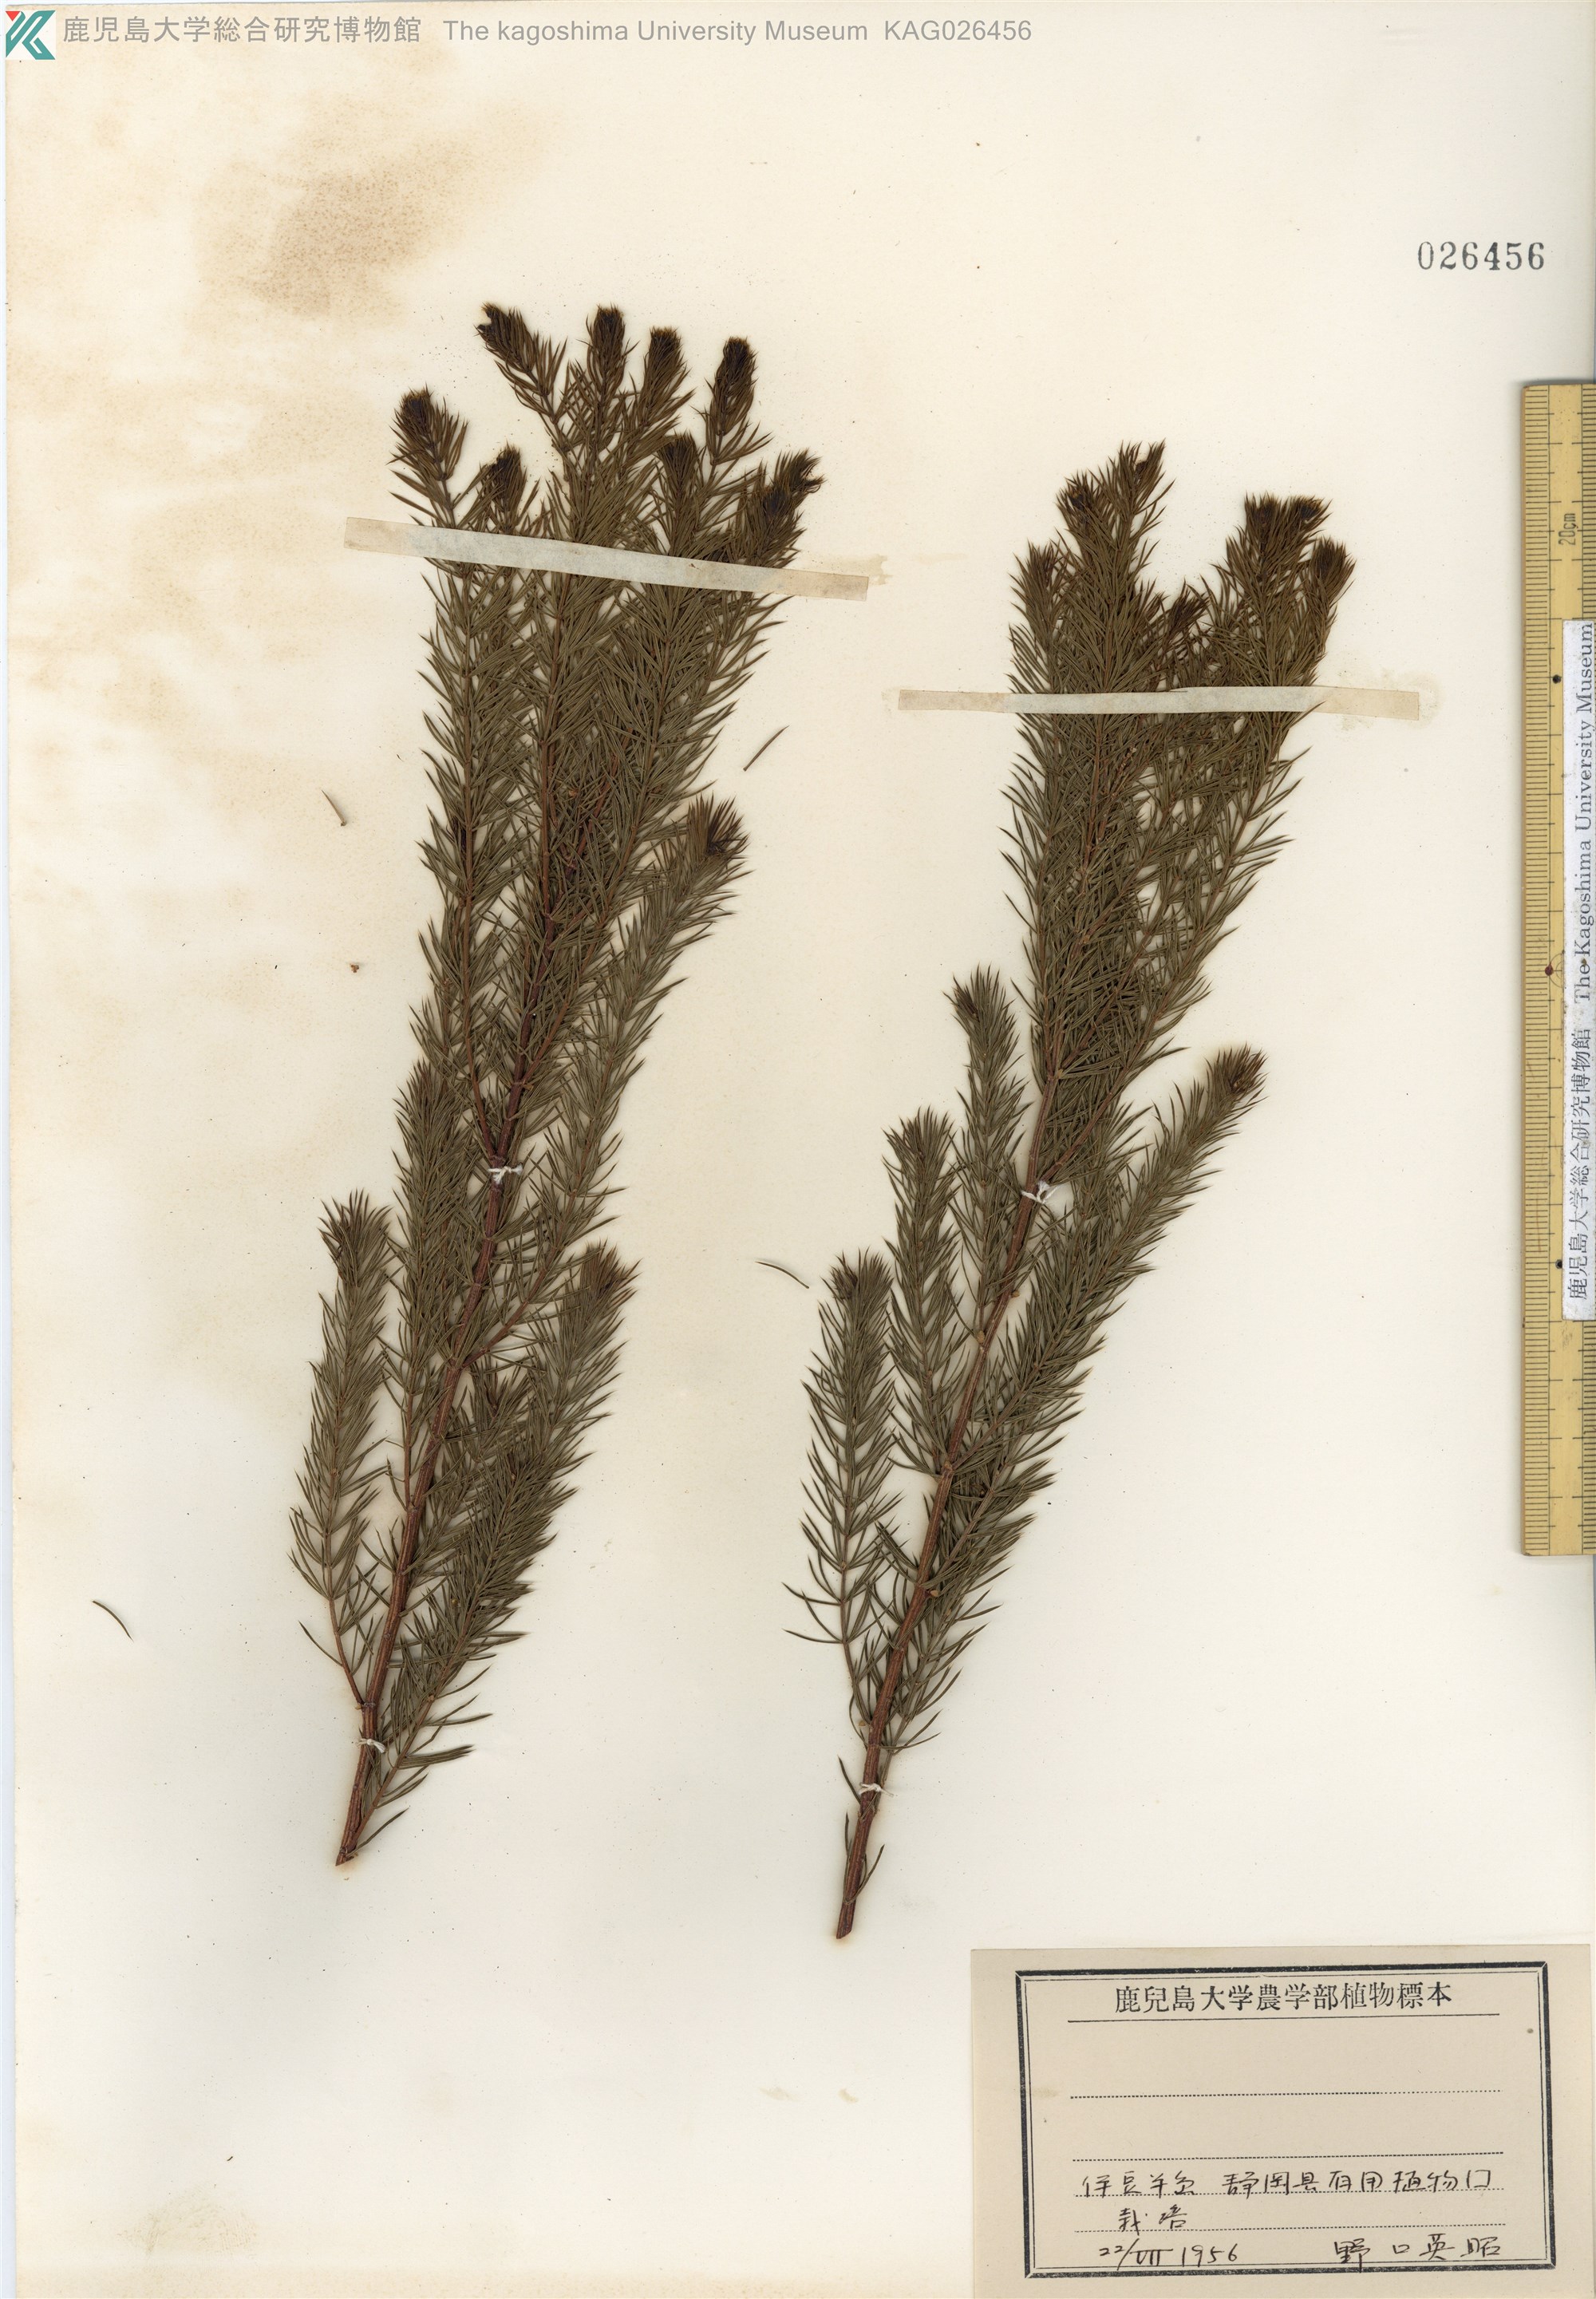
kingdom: Plantae
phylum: Tracheophyta
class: Magnoliopsida
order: Fabales
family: Fabaceae
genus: Acacia
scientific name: Acacia verticillata
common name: Prickly moses
